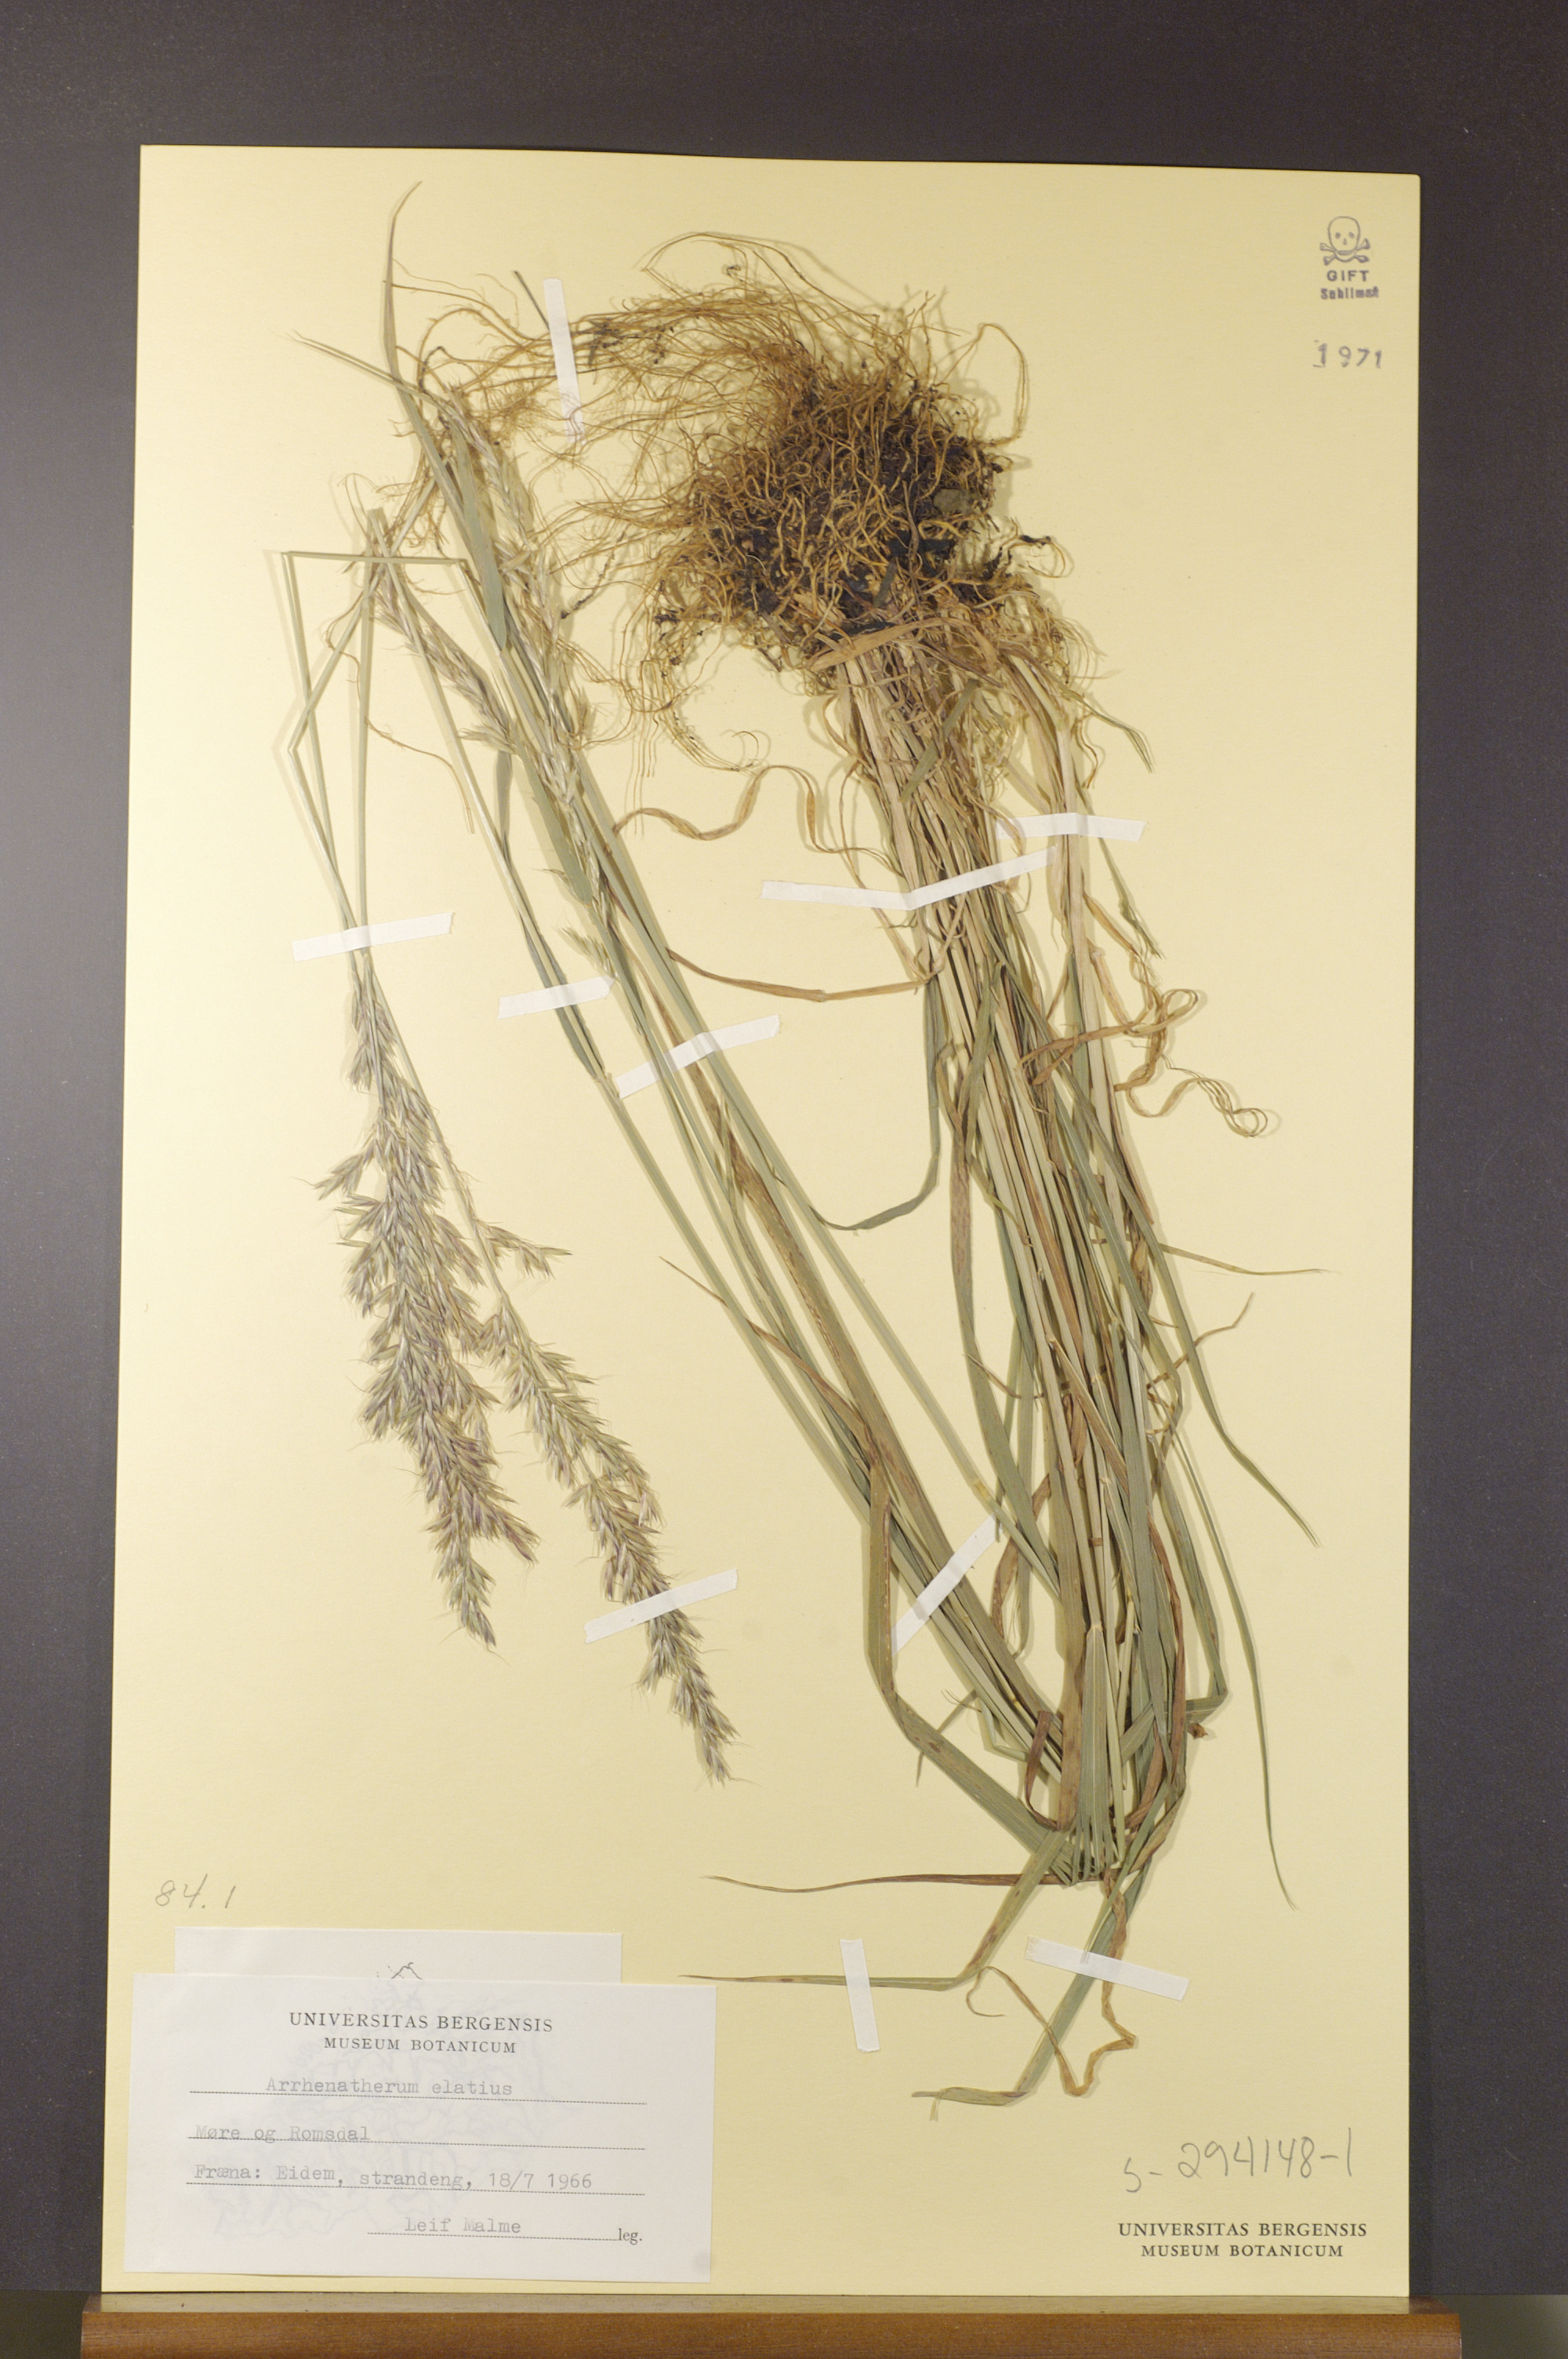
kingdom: Plantae
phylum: Tracheophyta
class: Liliopsida
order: Poales
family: Poaceae
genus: Arrhenatherum
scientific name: Arrhenatherum elatius
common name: Tall oatgrass
